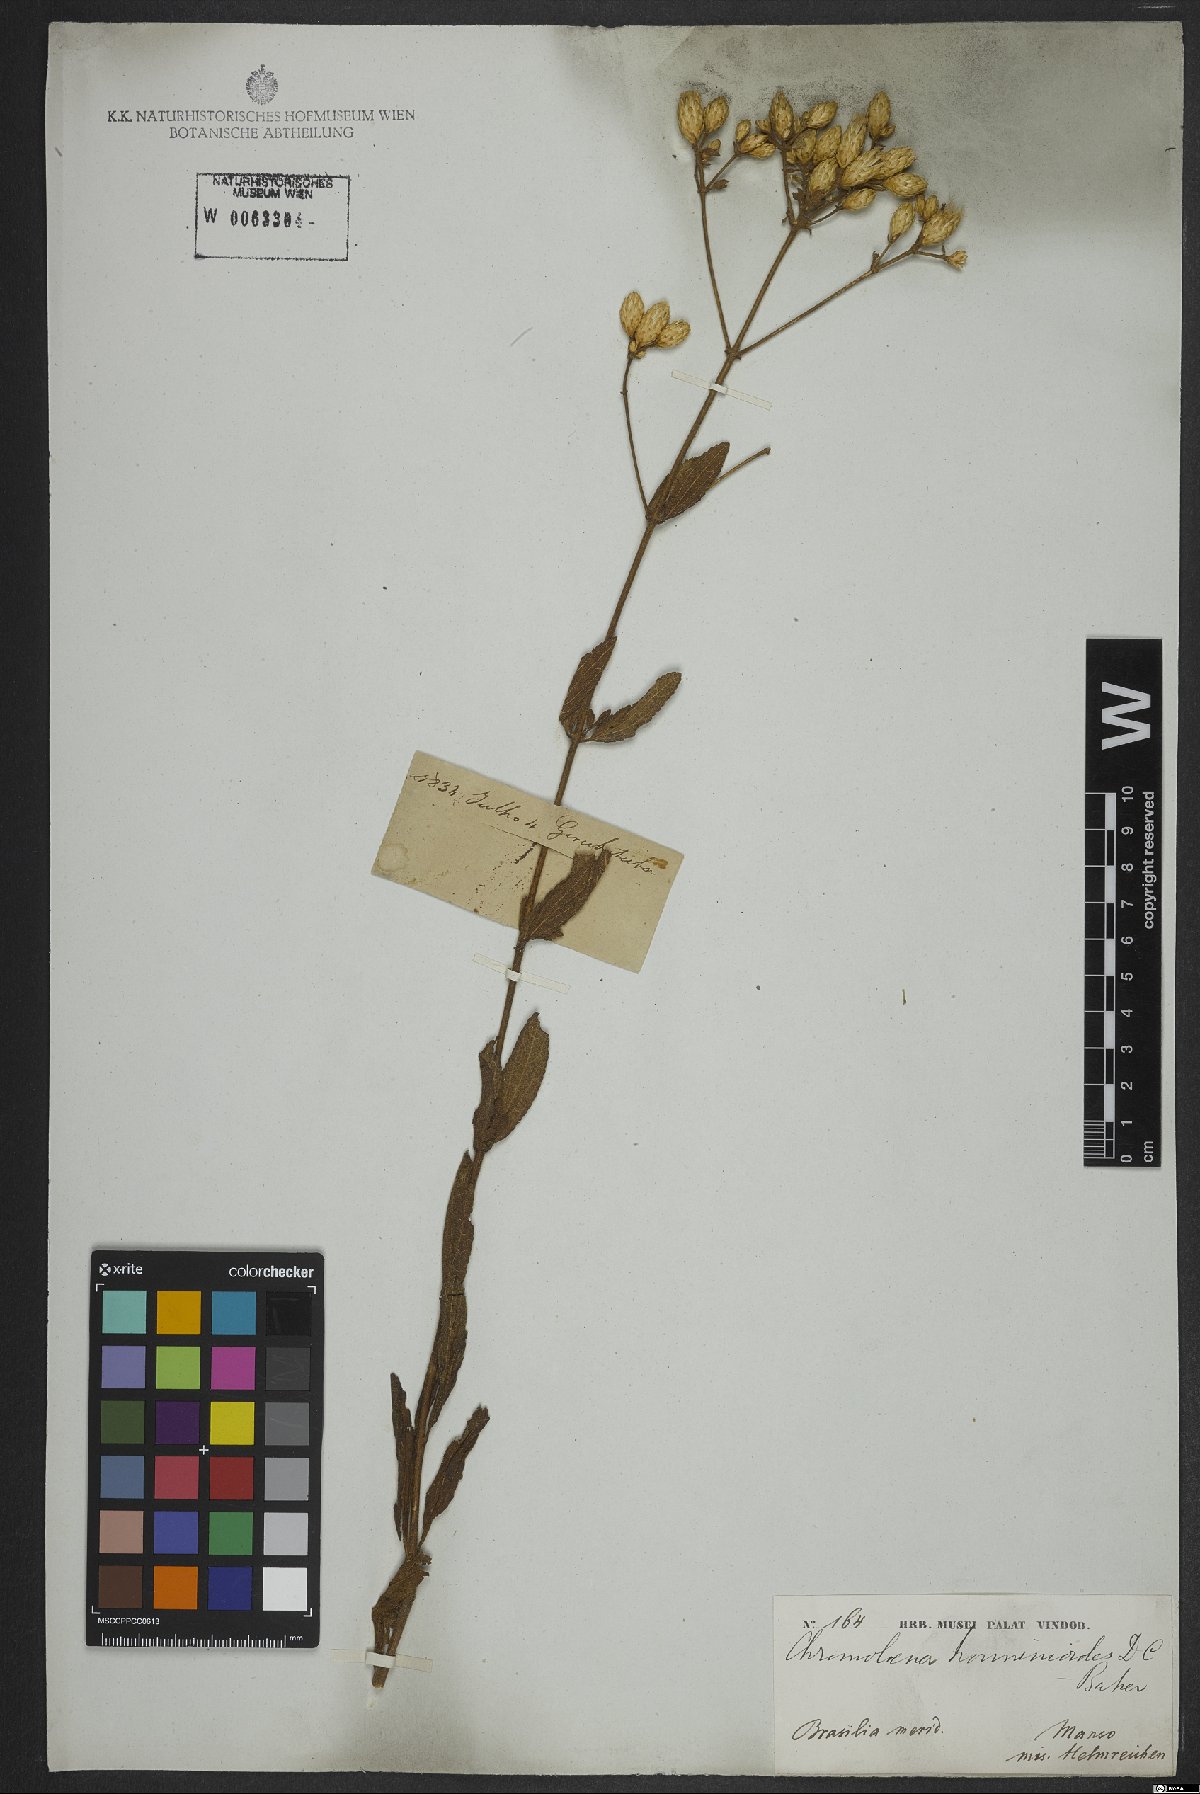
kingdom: Plantae
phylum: Tracheophyta
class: Magnoliopsida
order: Asterales
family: Asteraceae
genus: Chromolaena
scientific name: Chromolaena horminoides
